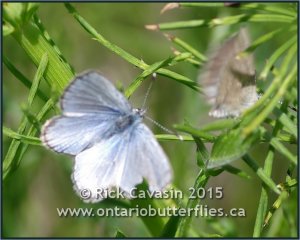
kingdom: Animalia
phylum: Arthropoda
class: Insecta
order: Lepidoptera
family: Lycaenidae
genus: Glaucopsyche
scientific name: Glaucopsyche lygdamus
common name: Silvery Blue
